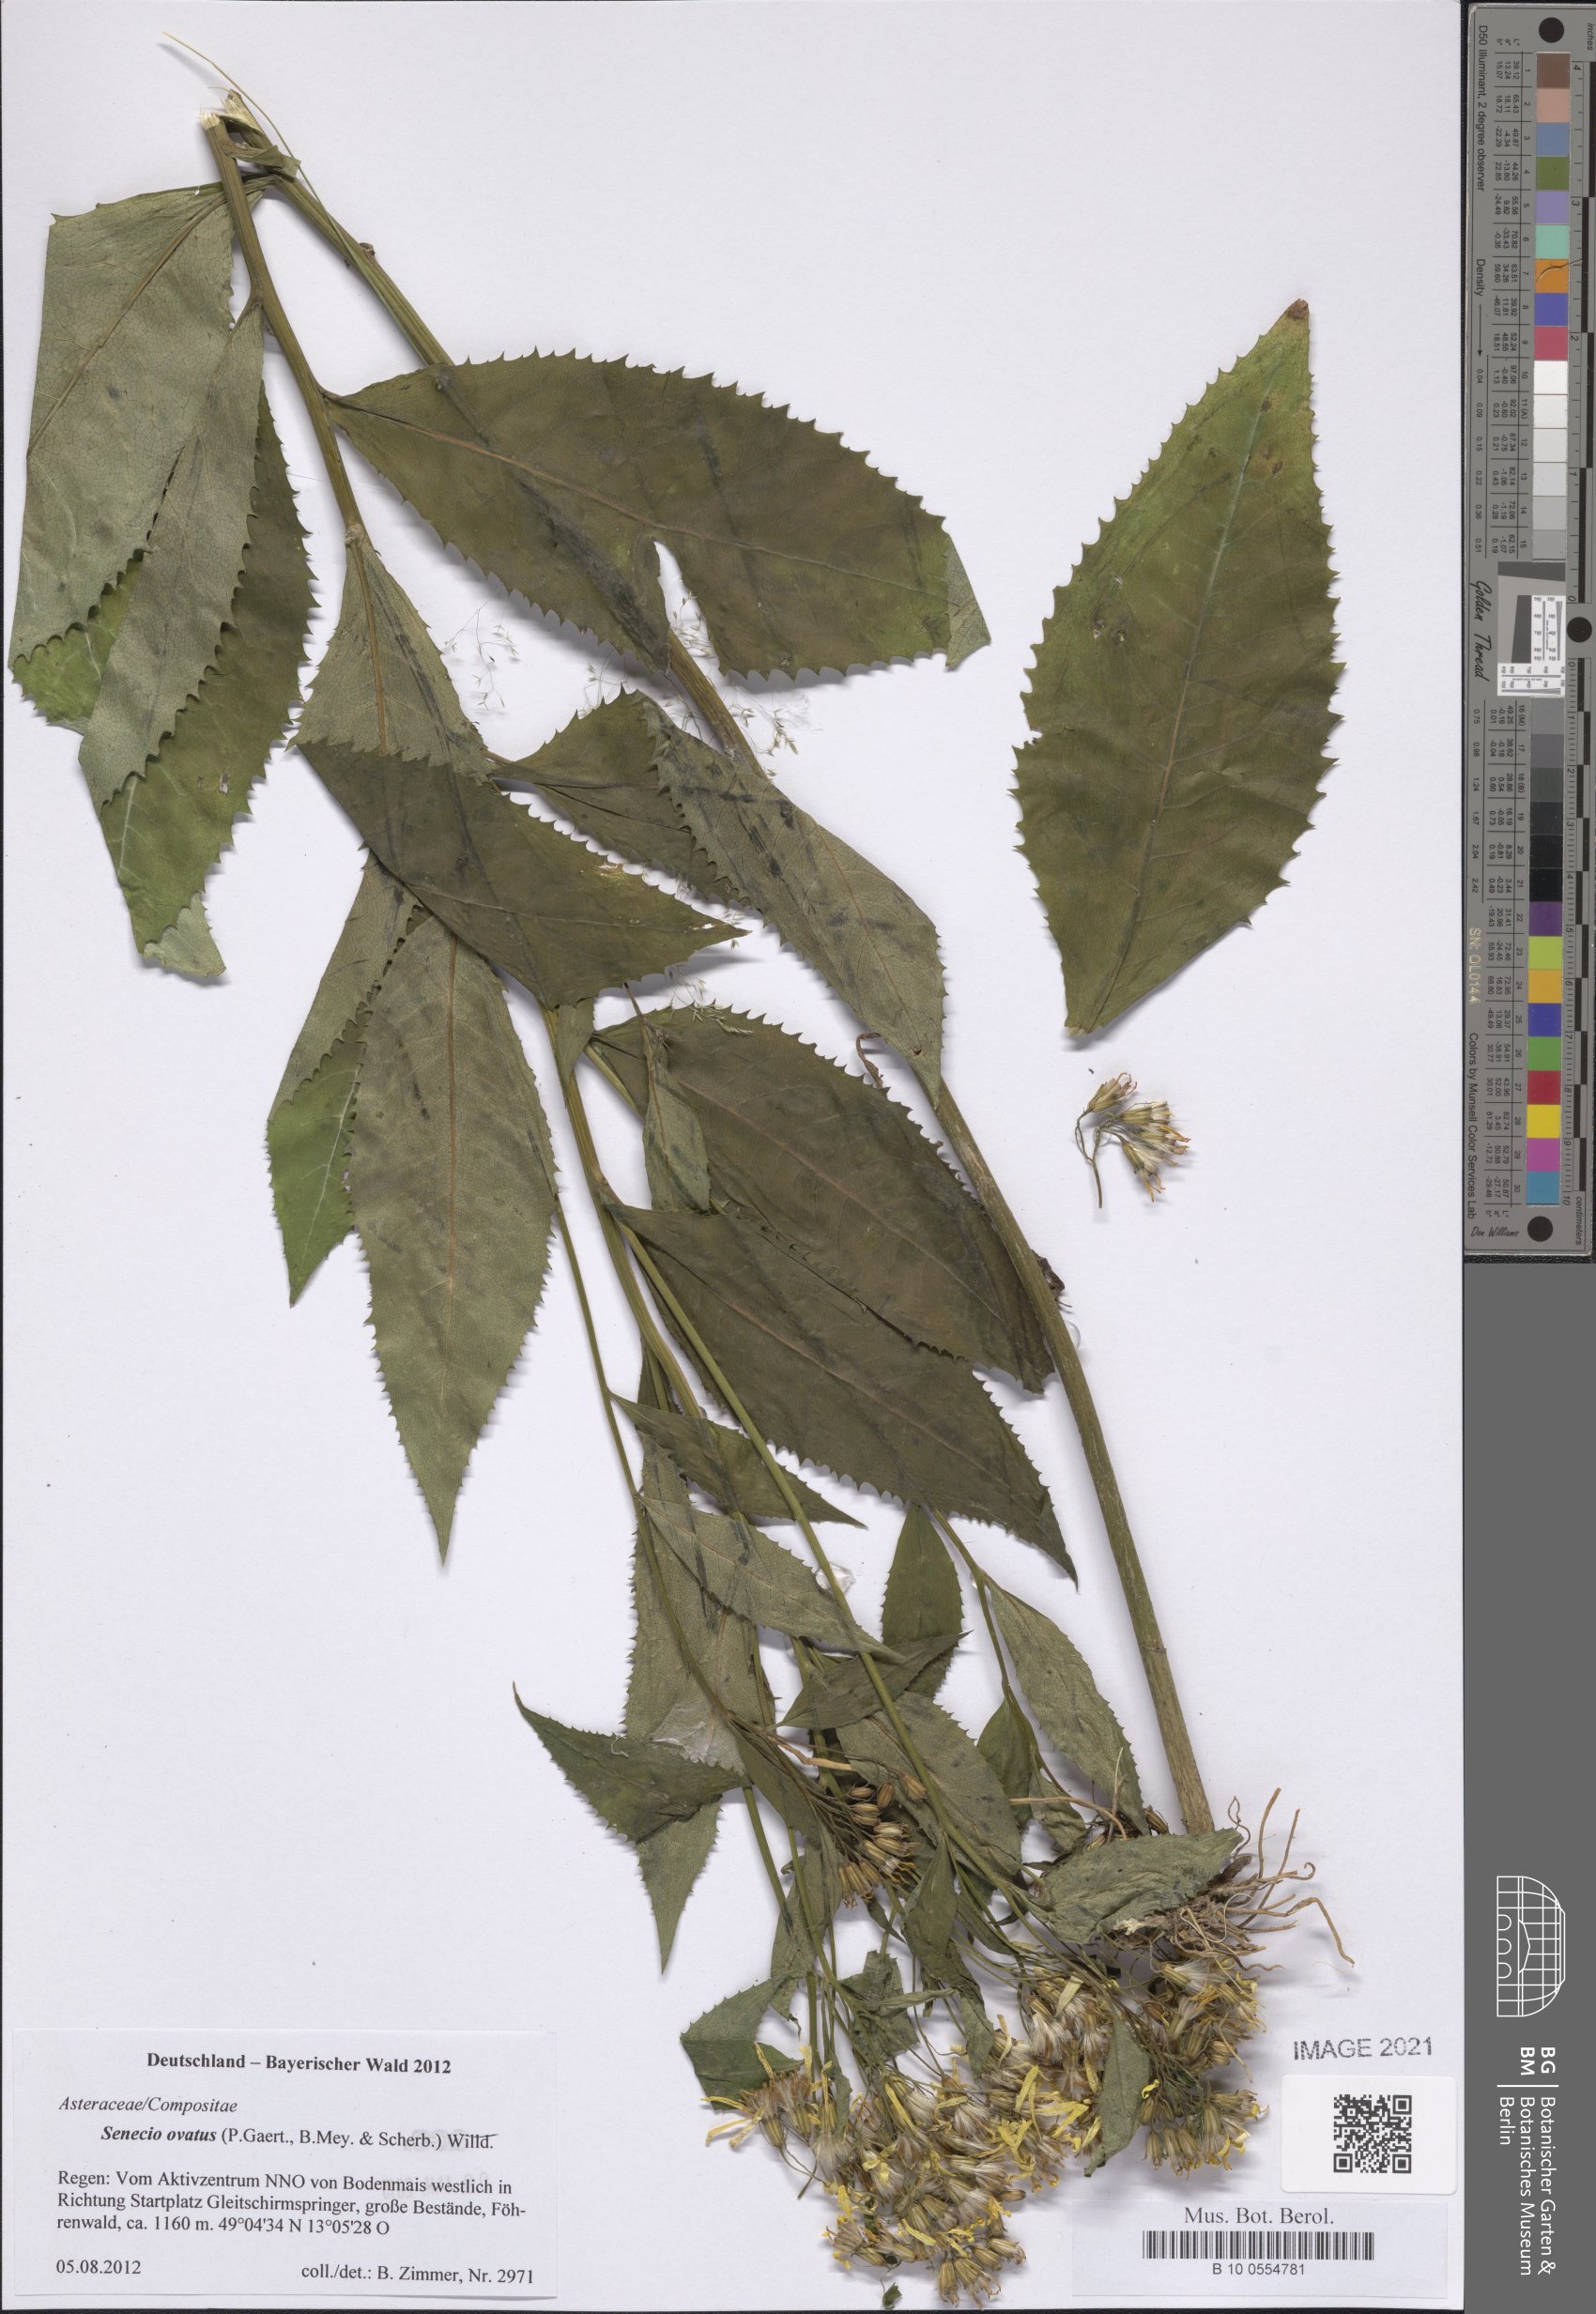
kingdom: Plantae
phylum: Tracheophyta
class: Magnoliopsida
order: Asterales
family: Asteraceae
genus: Senecio
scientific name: Senecio ovatus
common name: Wood ragwort
